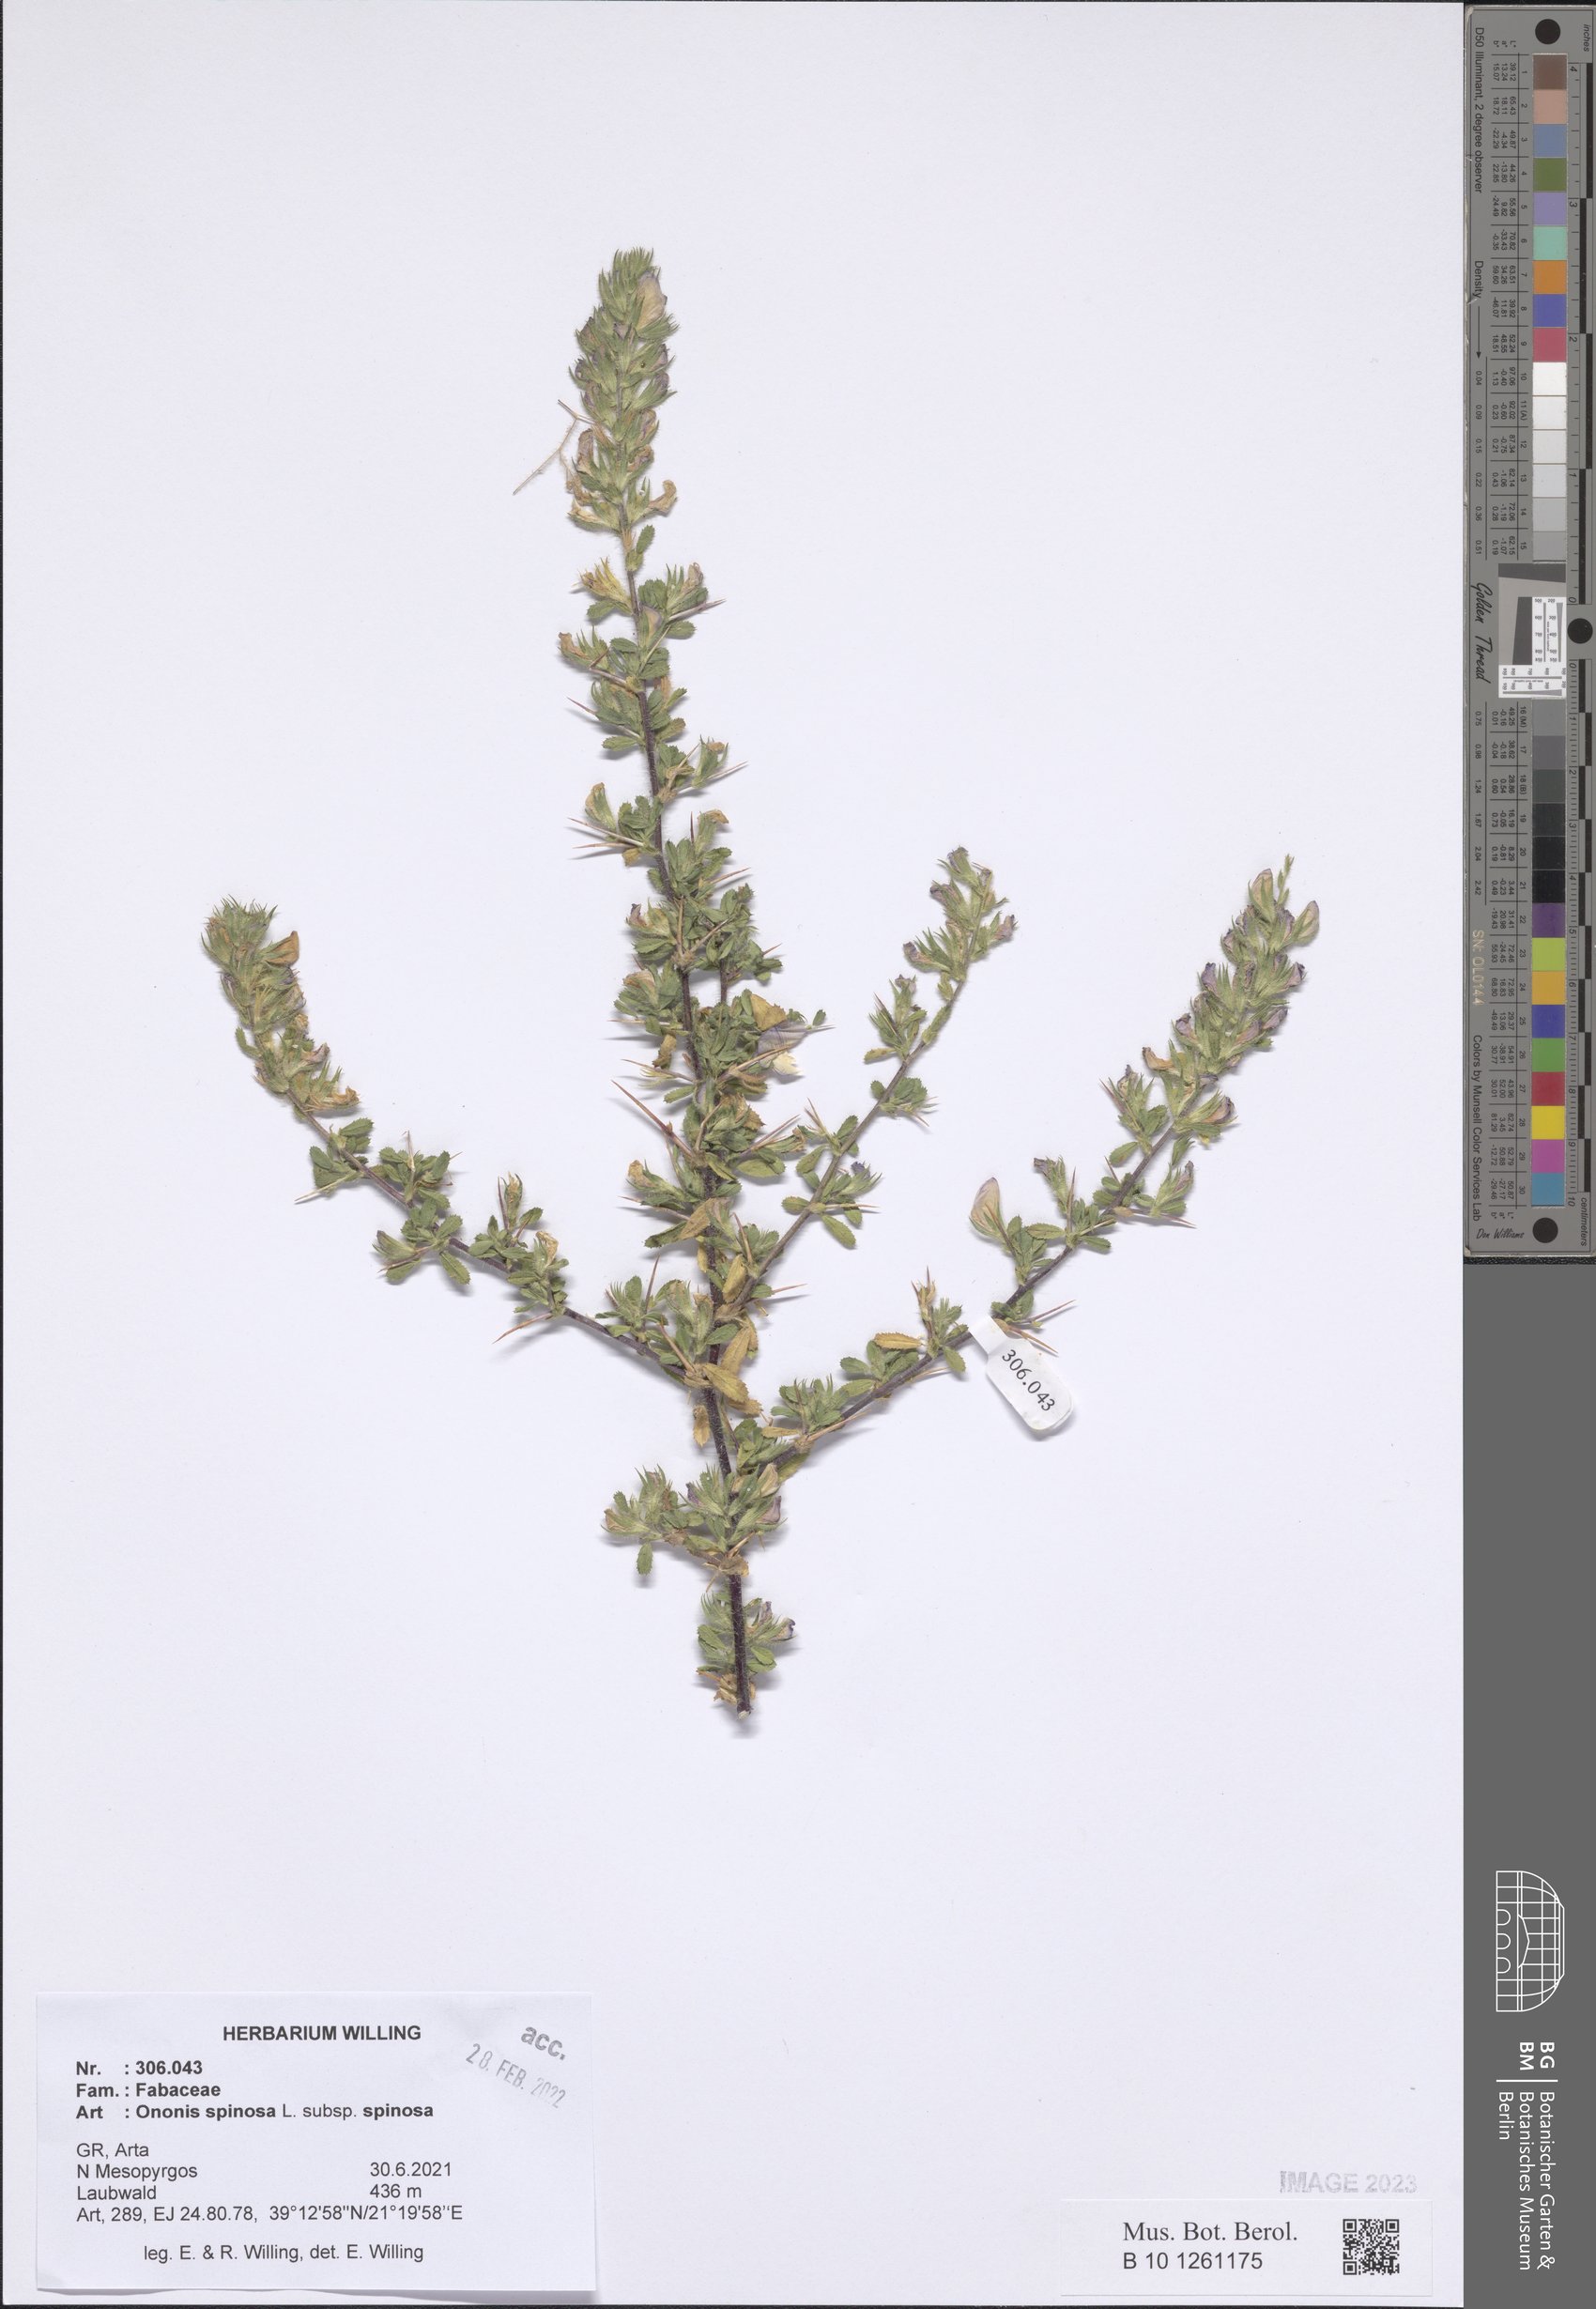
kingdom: Plantae
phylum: Tracheophyta
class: Magnoliopsida
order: Fabales
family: Fabaceae
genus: Ononis
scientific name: Ononis spinosa
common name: Spiny restharrow
